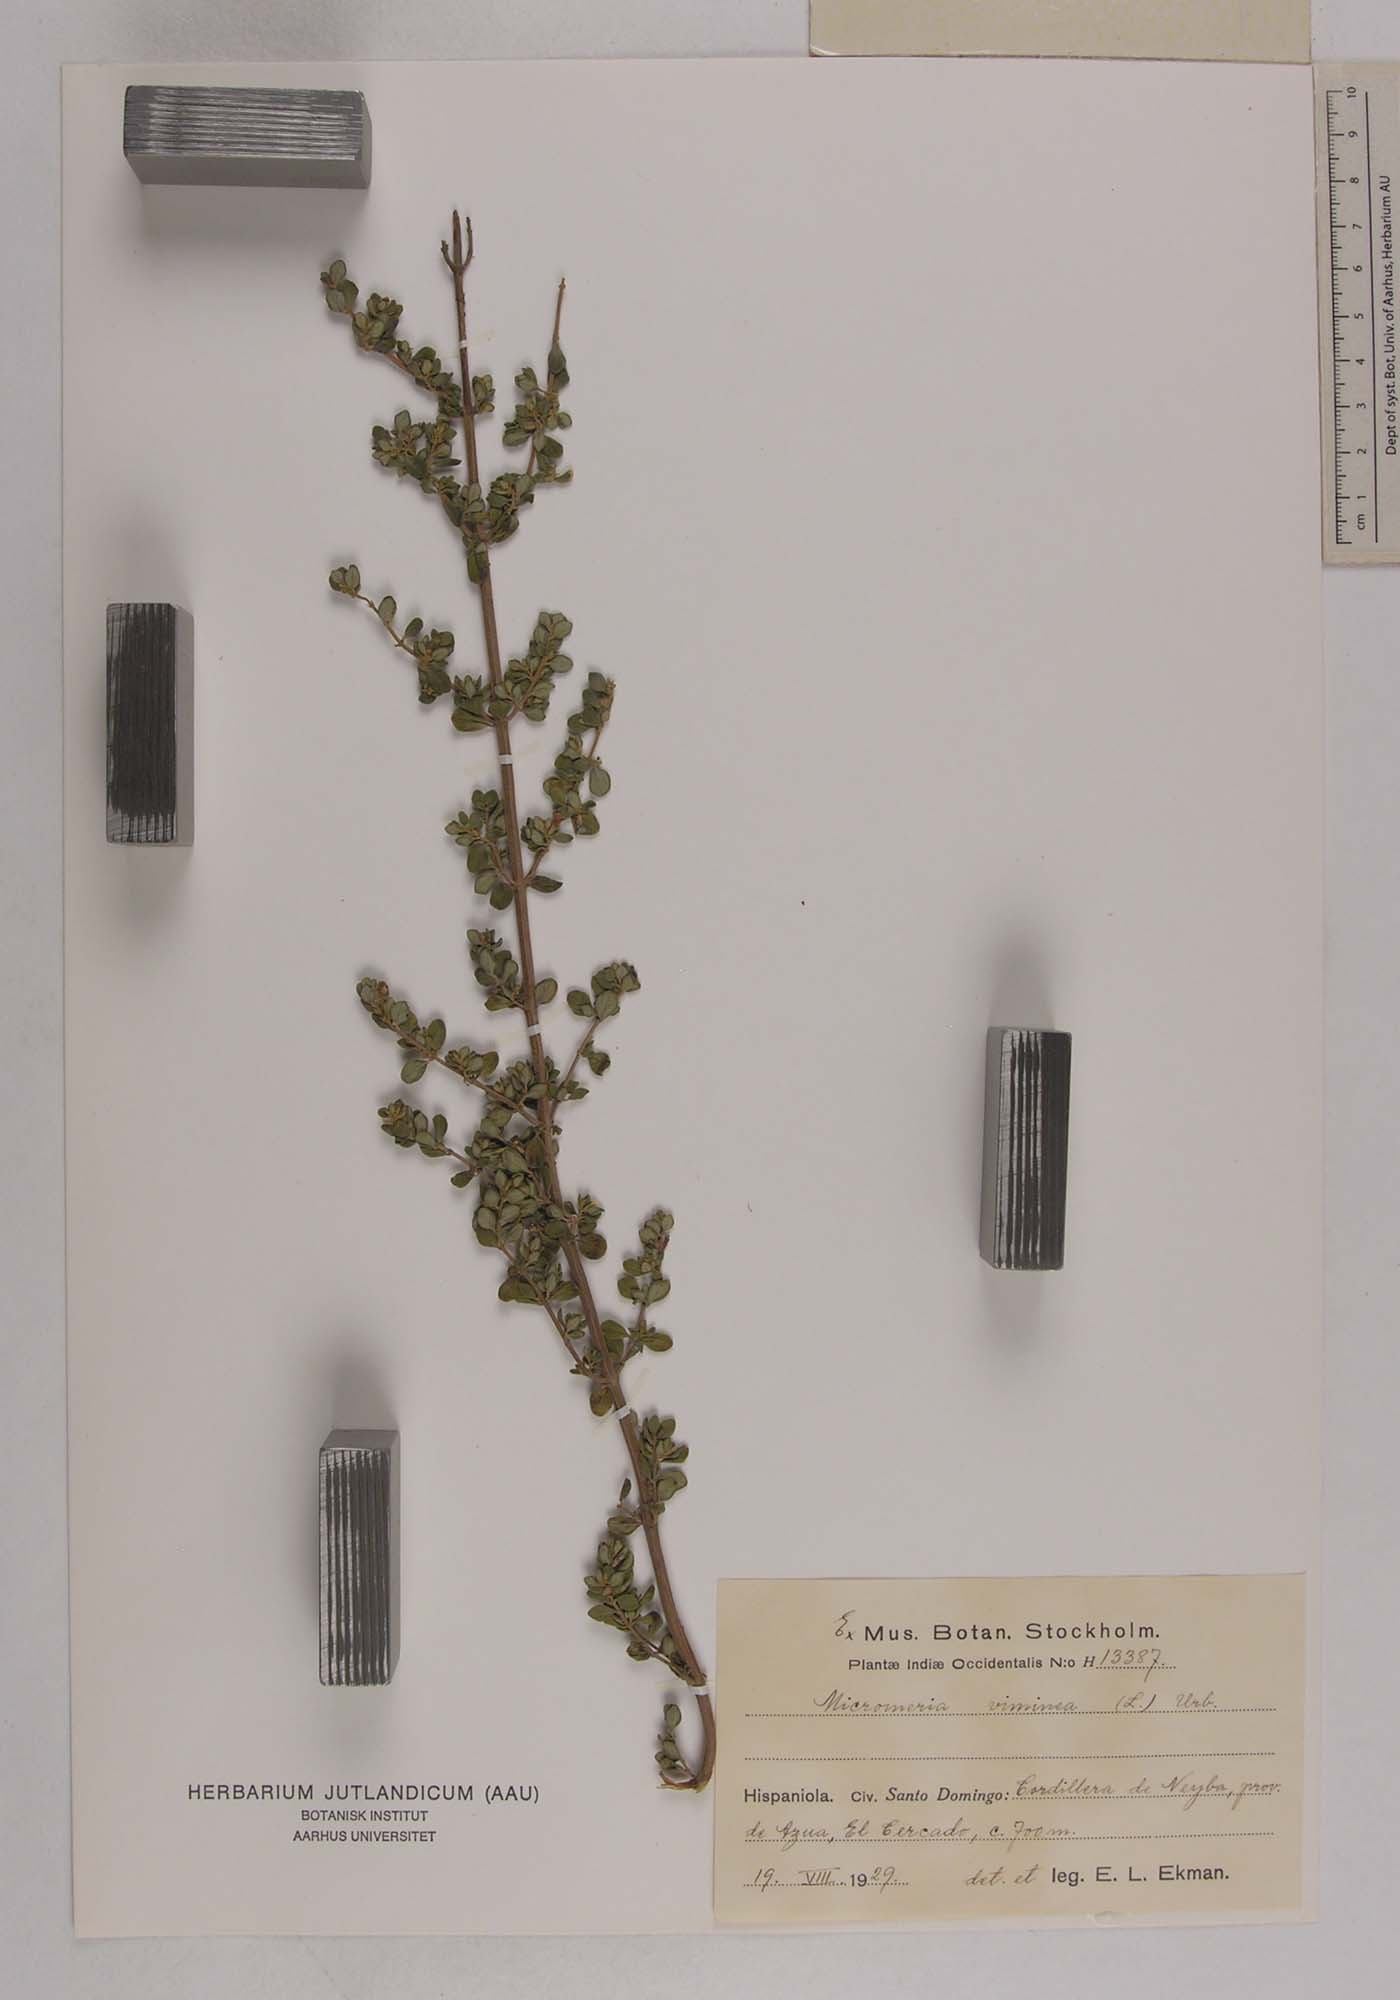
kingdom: Plantae
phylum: Tracheophyta
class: Magnoliopsida
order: Lamiales
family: Lamiaceae
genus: Clinopodium
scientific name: Clinopodium vimineum
